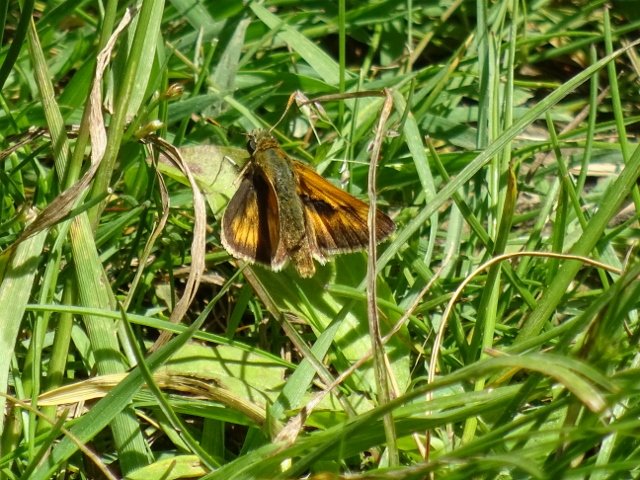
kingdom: Animalia
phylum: Arthropoda
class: Insecta
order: Lepidoptera
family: Hesperiidae
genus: Polites
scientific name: Polites
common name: Long Dash Skipper
